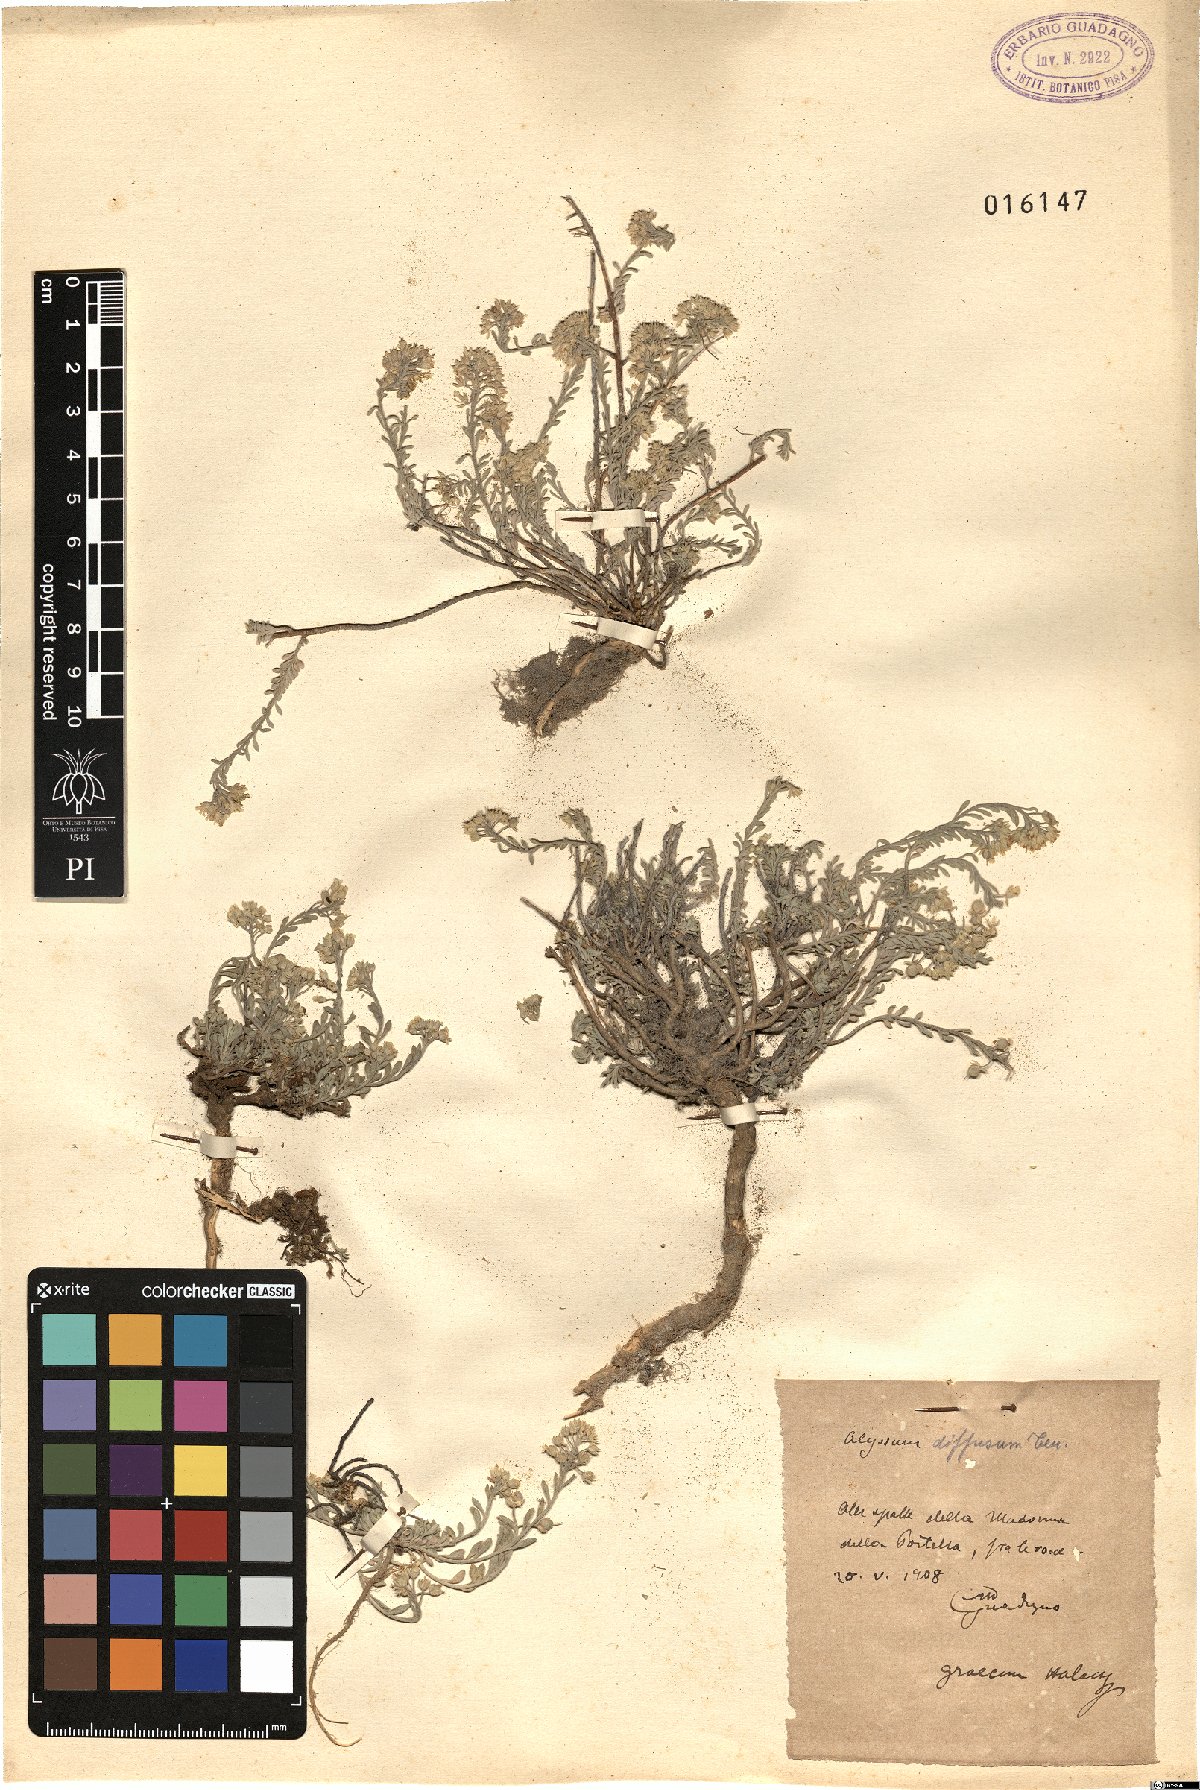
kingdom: Plantae
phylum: Tracheophyta
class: Magnoliopsida
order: Brassicales
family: Brassicaceae
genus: Alyssum
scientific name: Alyssum diffusum
